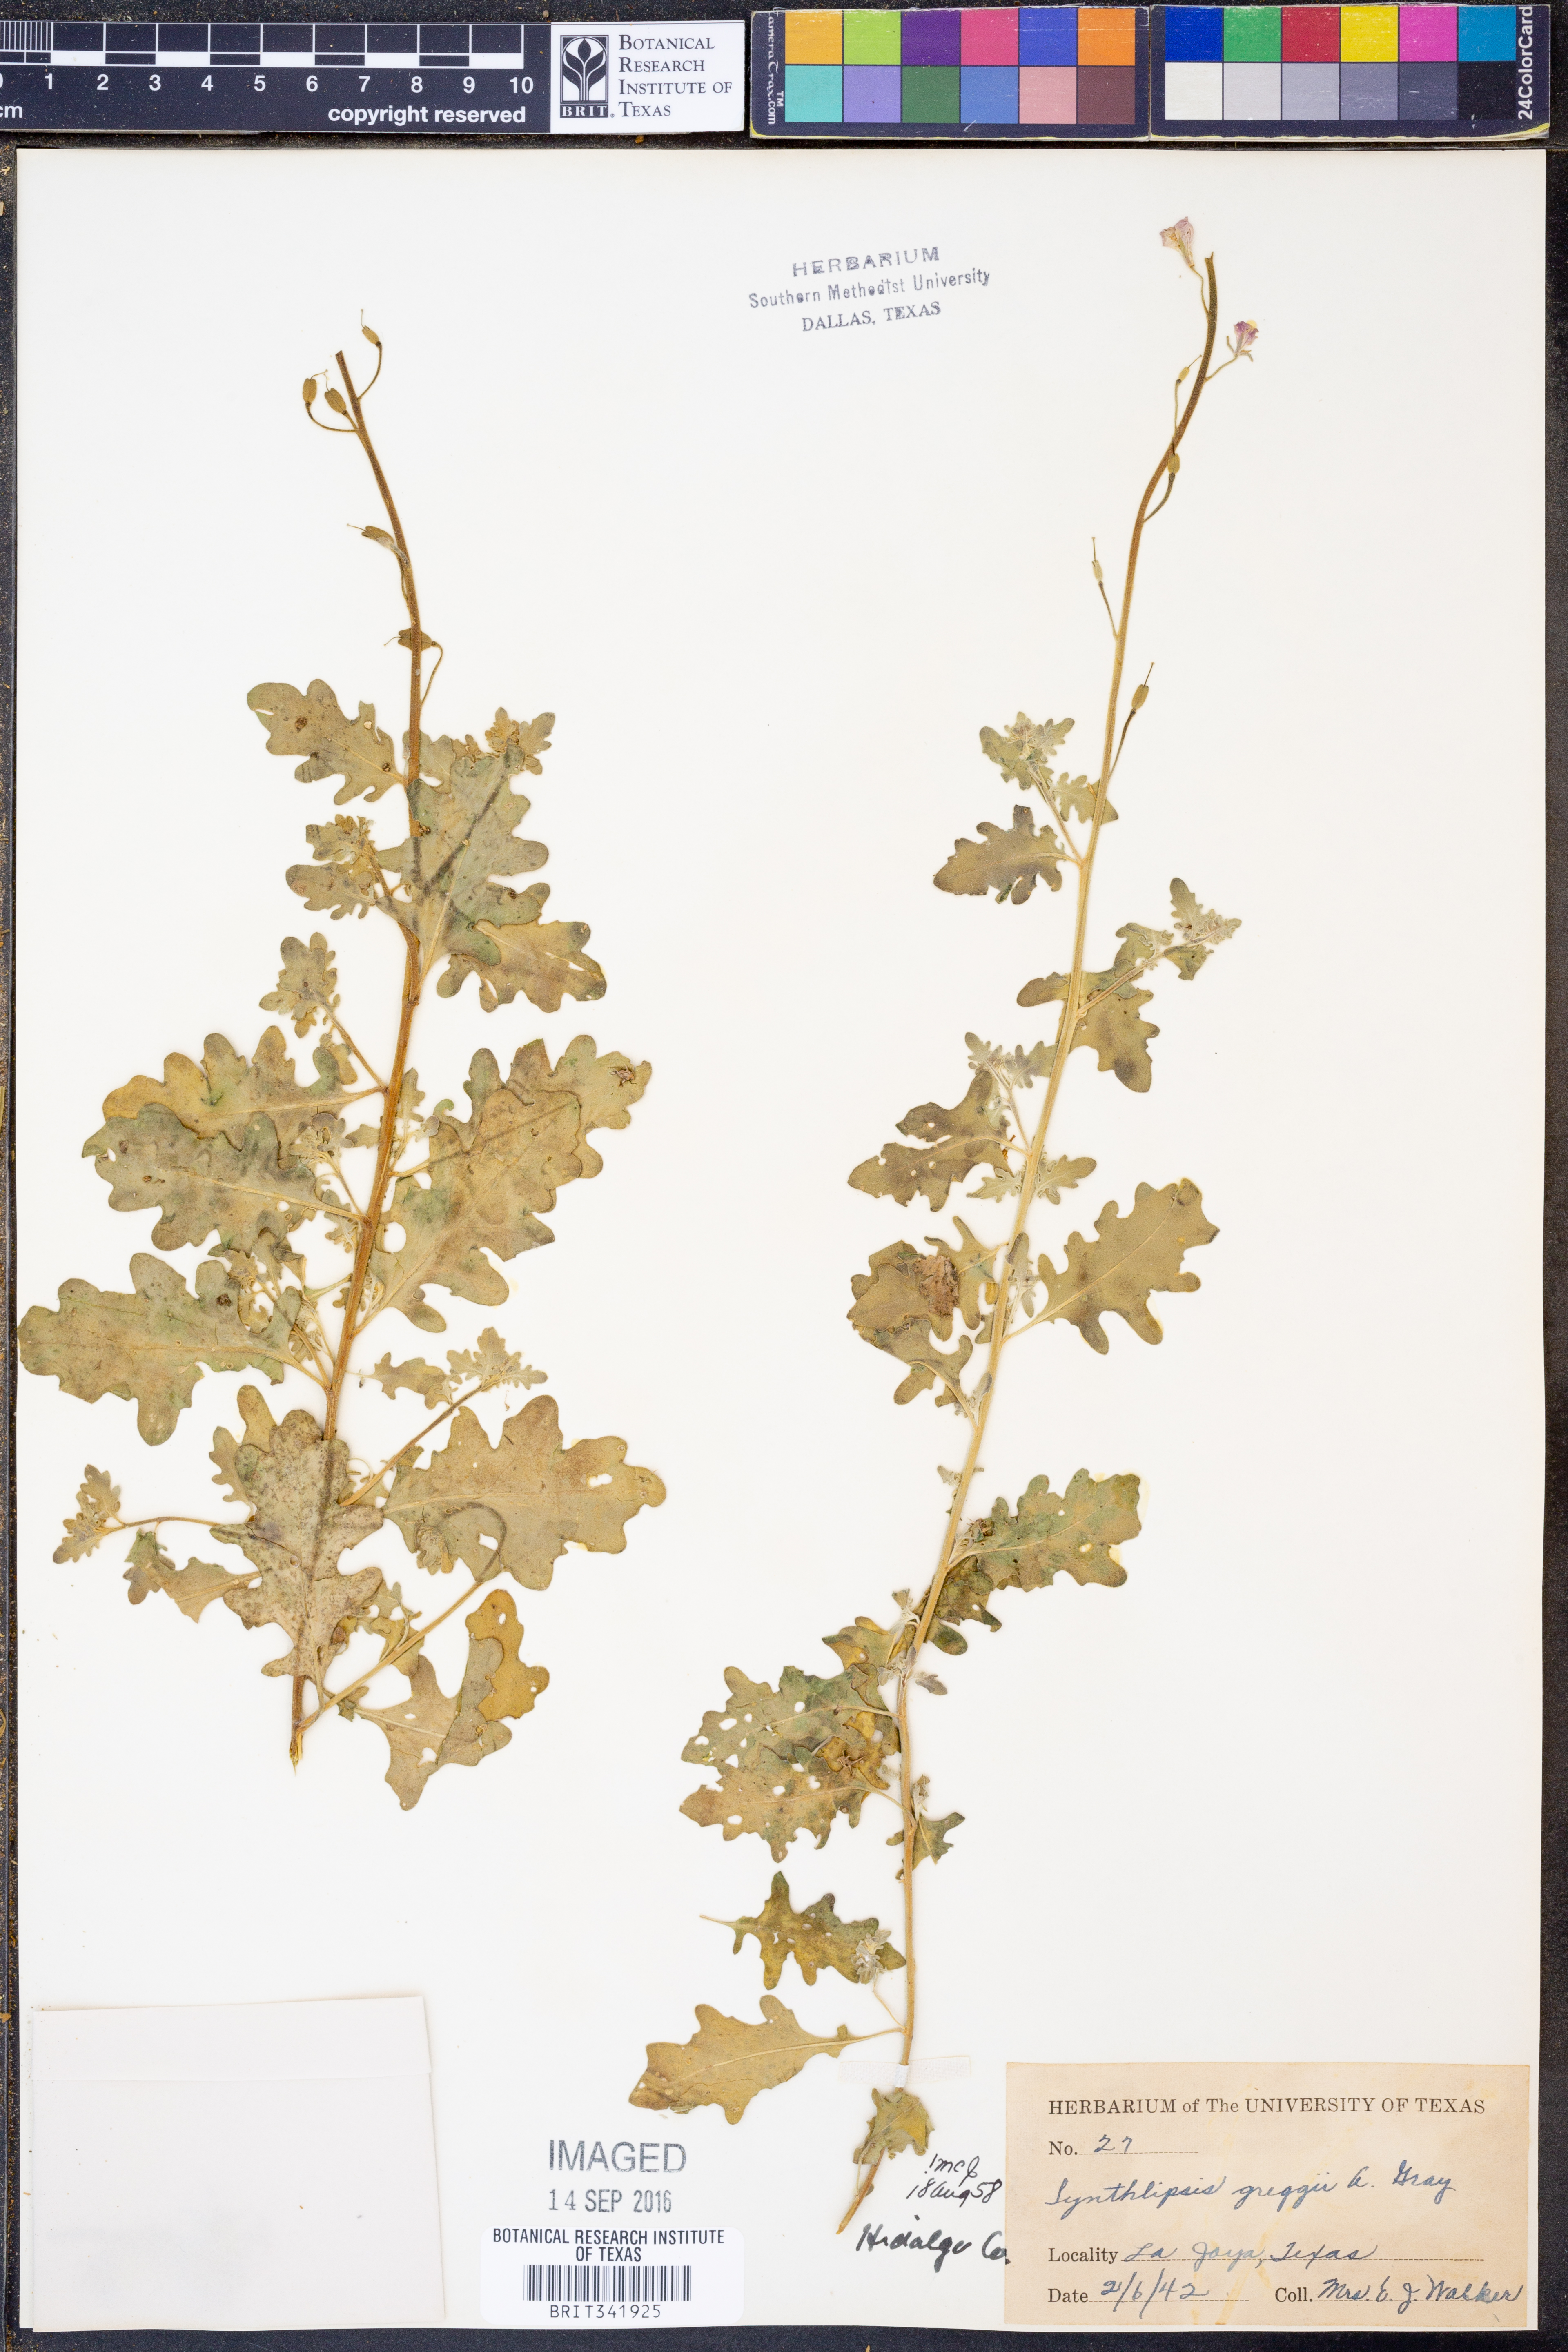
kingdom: Plantae
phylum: Tracheophyta
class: Magnoliopsida
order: Brassicales
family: Brassicaceae
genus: Synthlipsis
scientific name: Synthlipsis greggii
